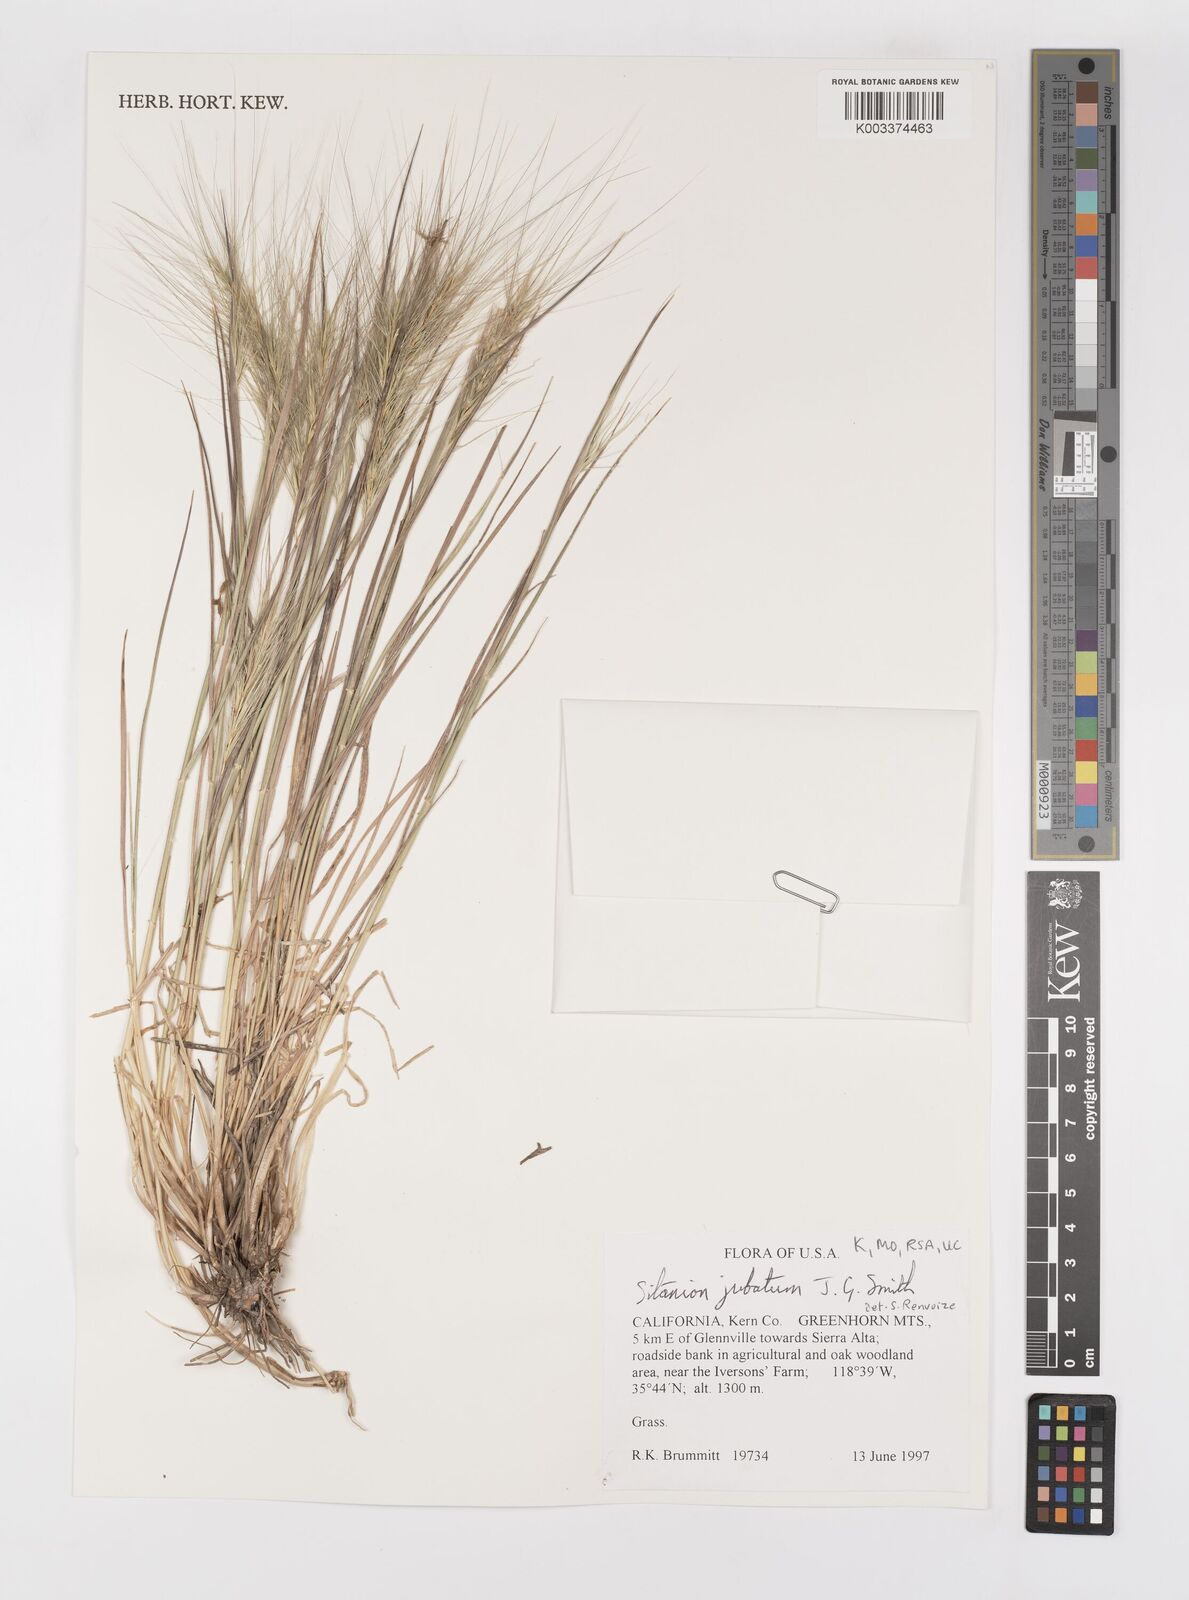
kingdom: Plantae
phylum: Tracheophyta
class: Liliopsida
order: Poales
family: Poaceae
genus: Elymus
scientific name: Elymus multisetus
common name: Big squirreltail
